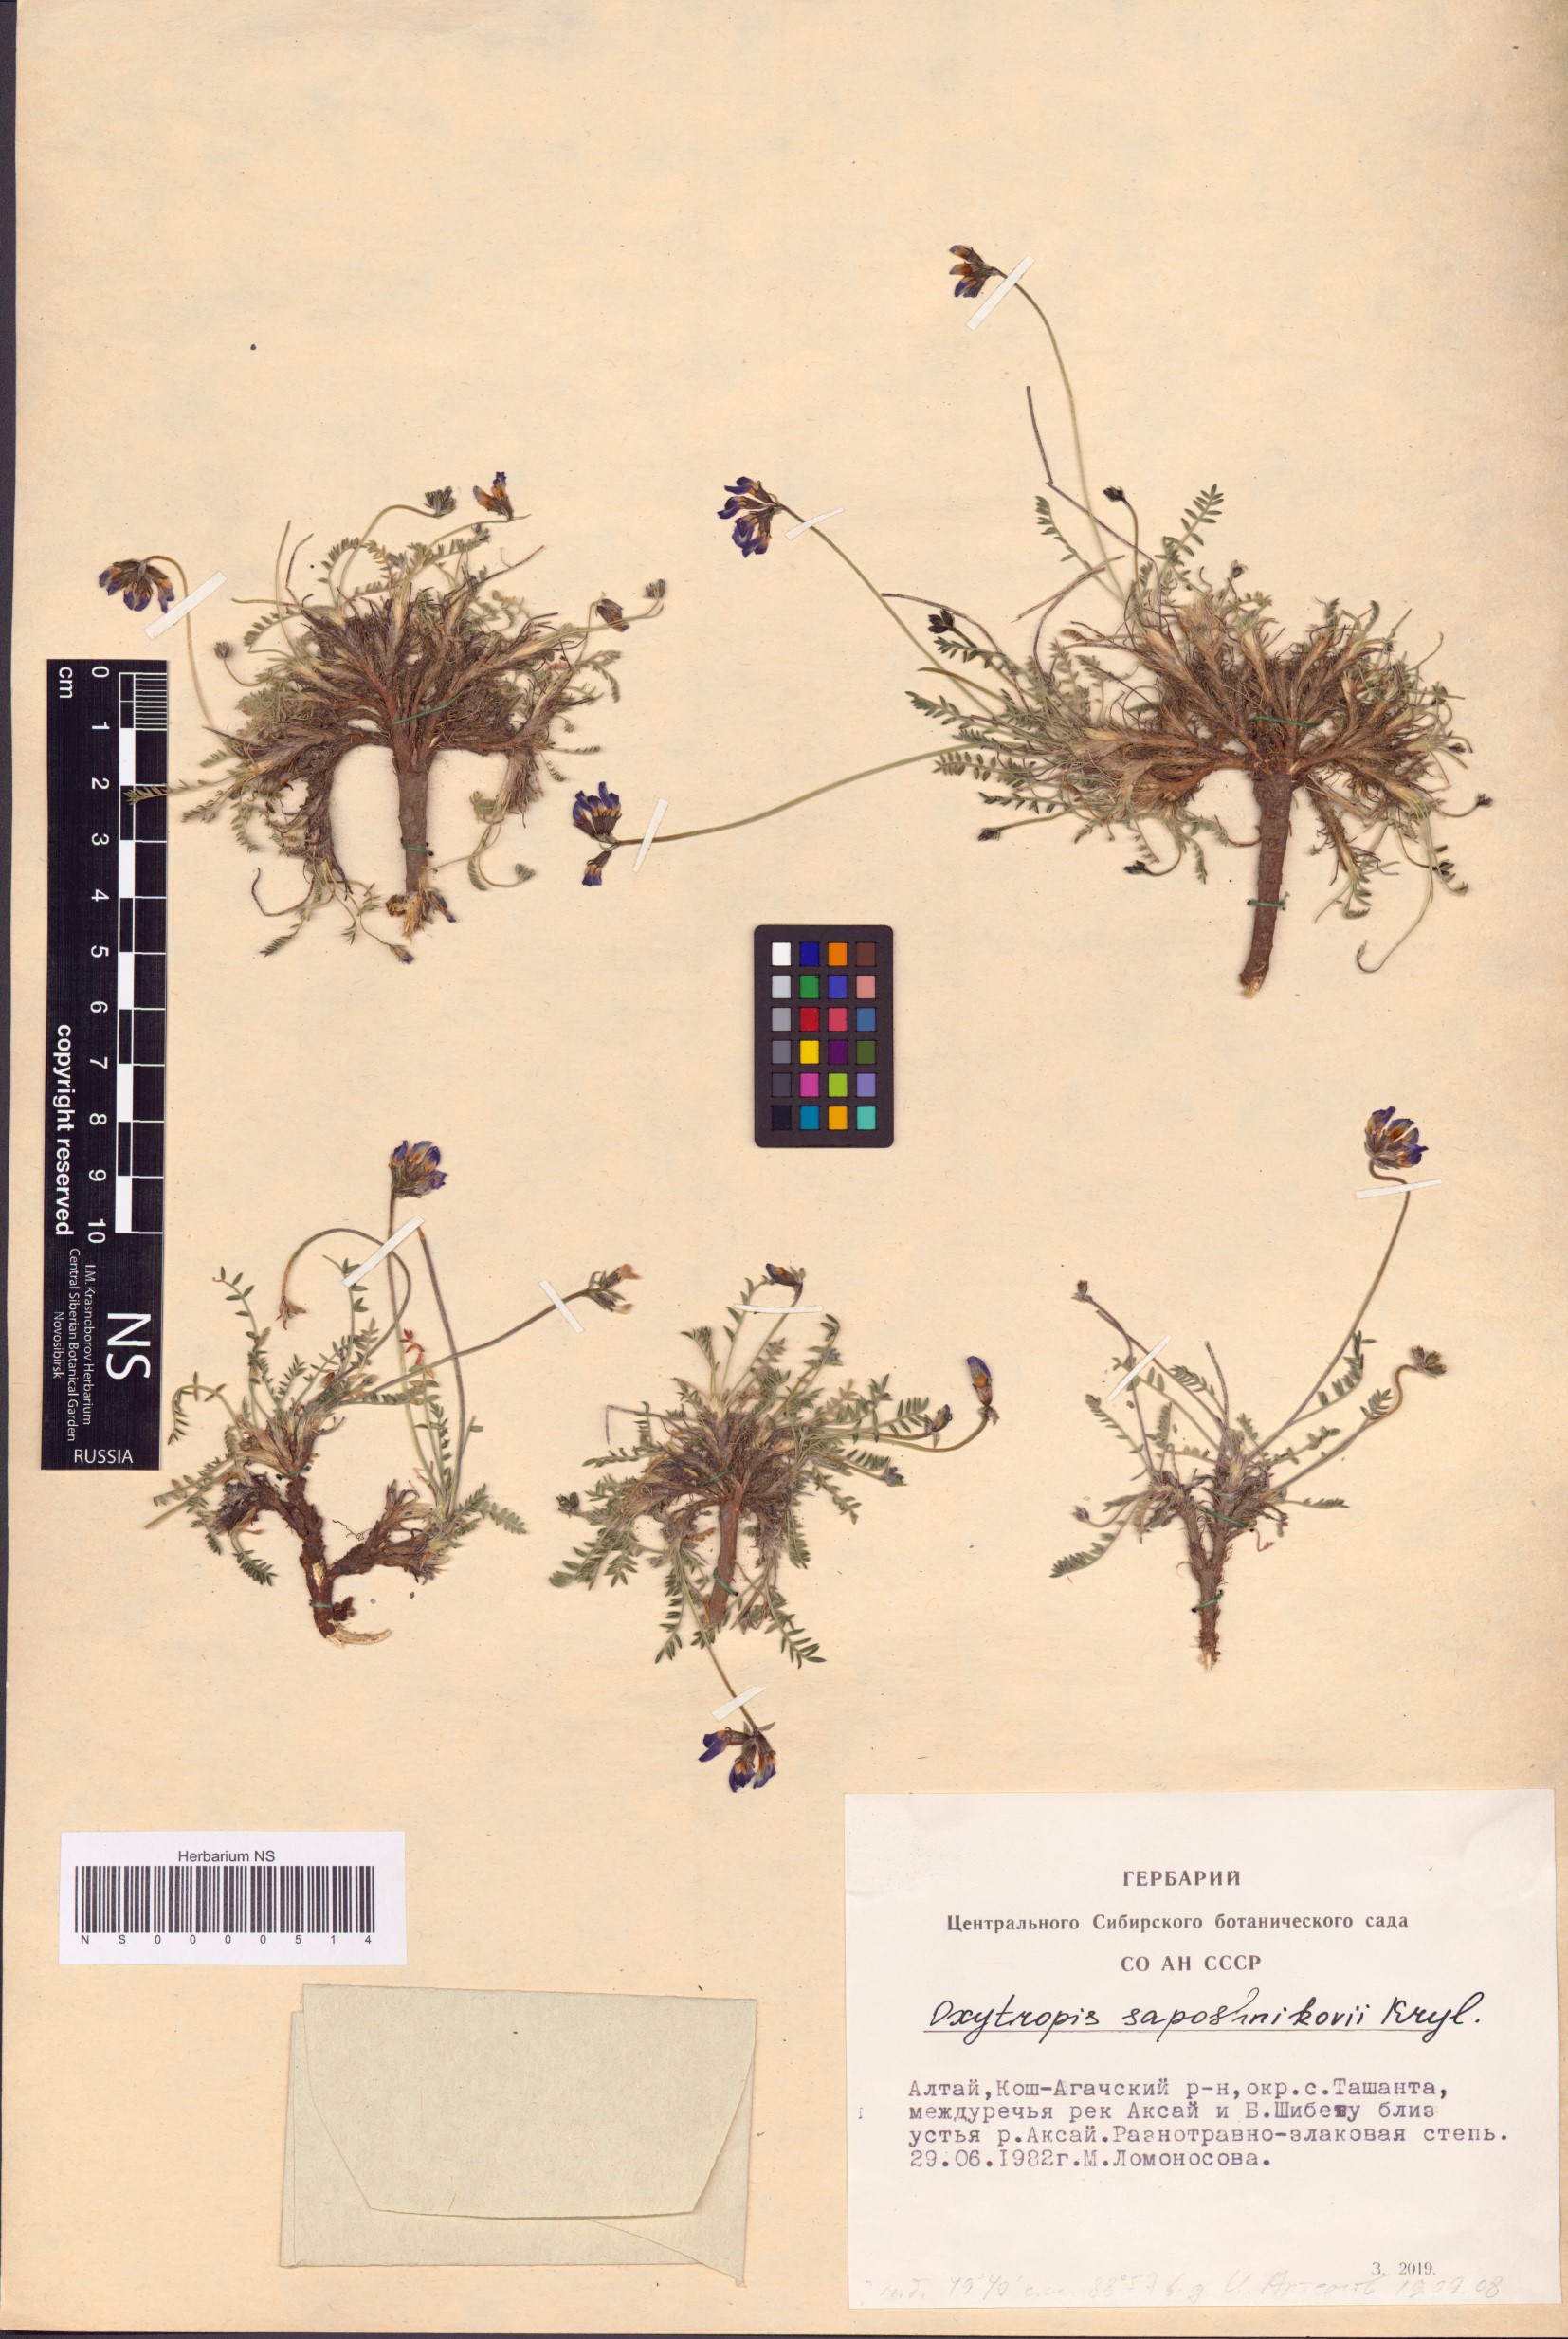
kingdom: Plantae
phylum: Tracheophyta
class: Magnoliopsida
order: Fabales
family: Fabaceae
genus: Oxytropis
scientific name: Oxytropis saposhnikovii
